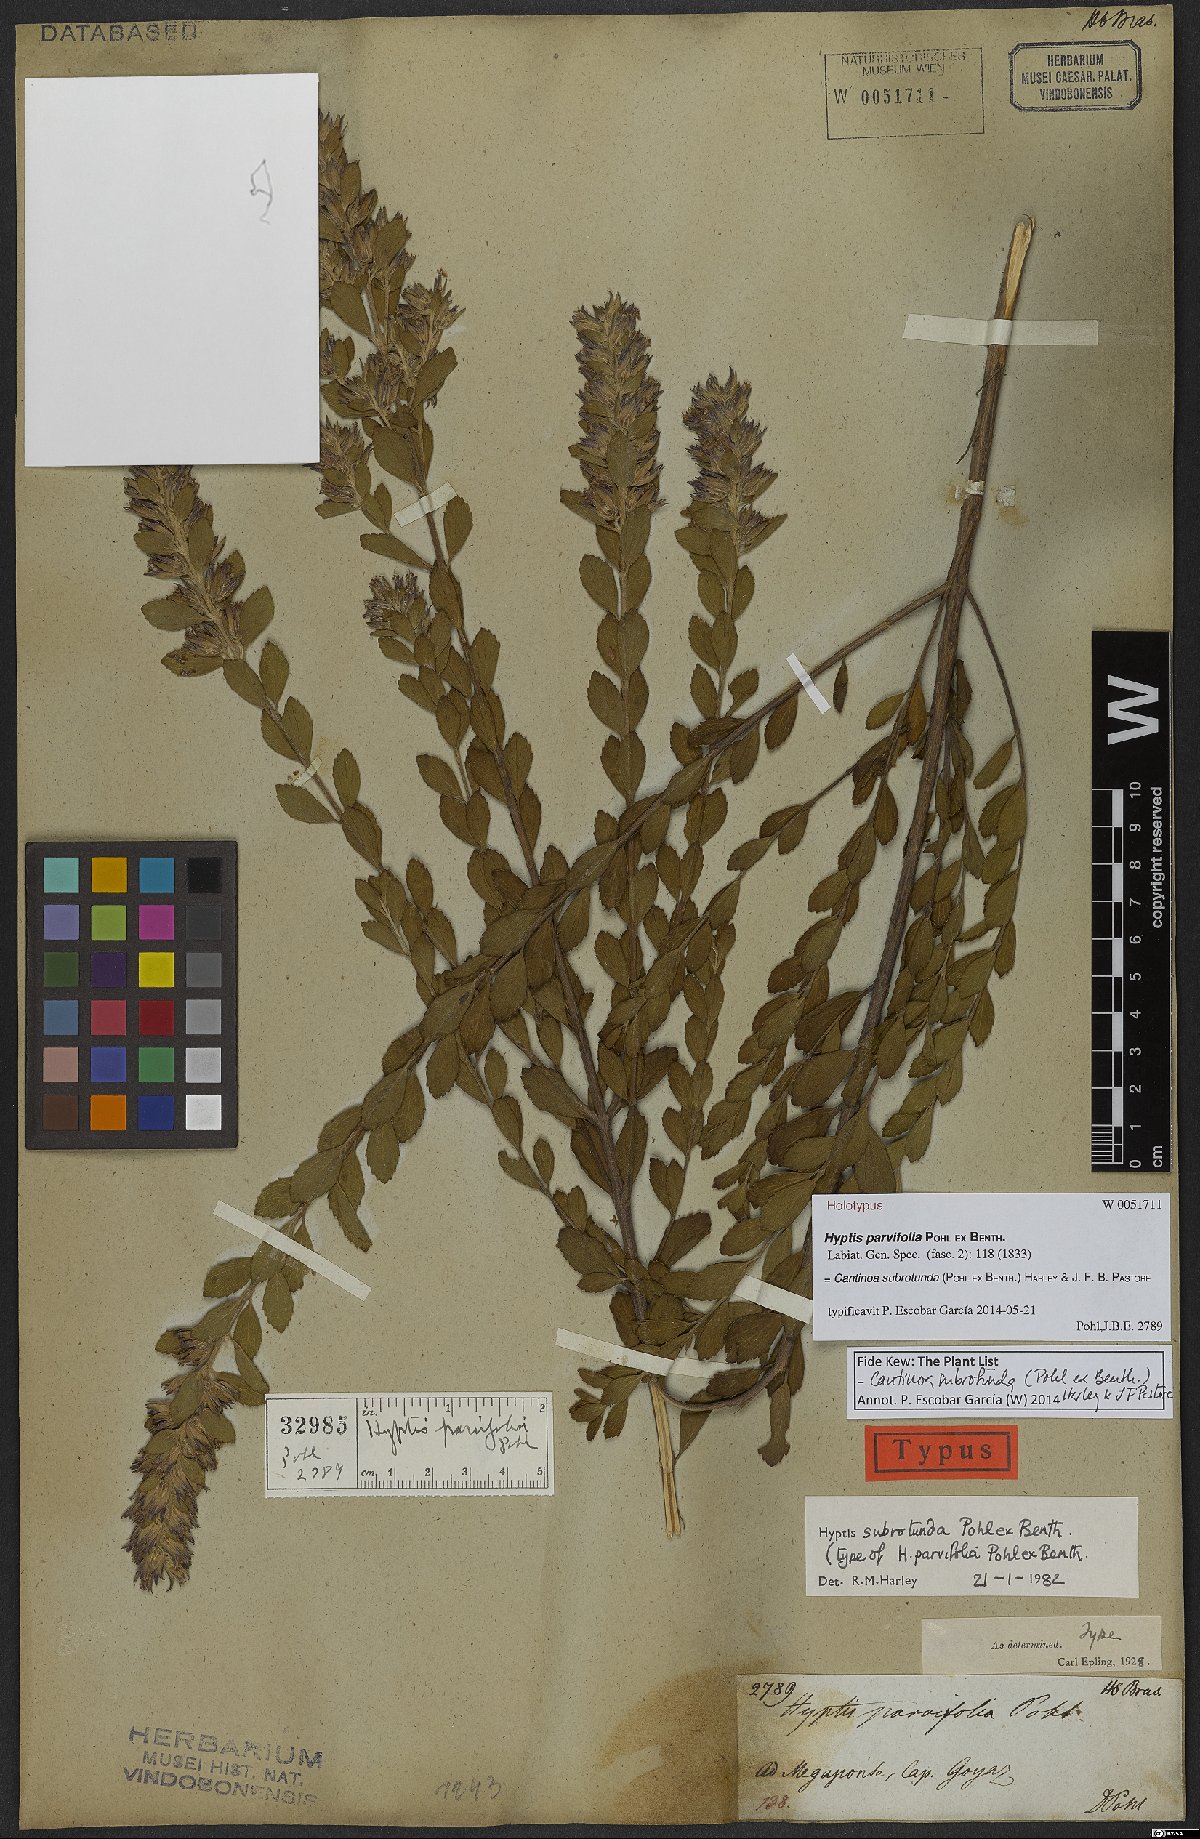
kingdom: Plantae
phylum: Tracheophyta
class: Magnoliopsida
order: Lamiales
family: Lamiaceae
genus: Cantinoa
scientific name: Cantinoa subrotunda
